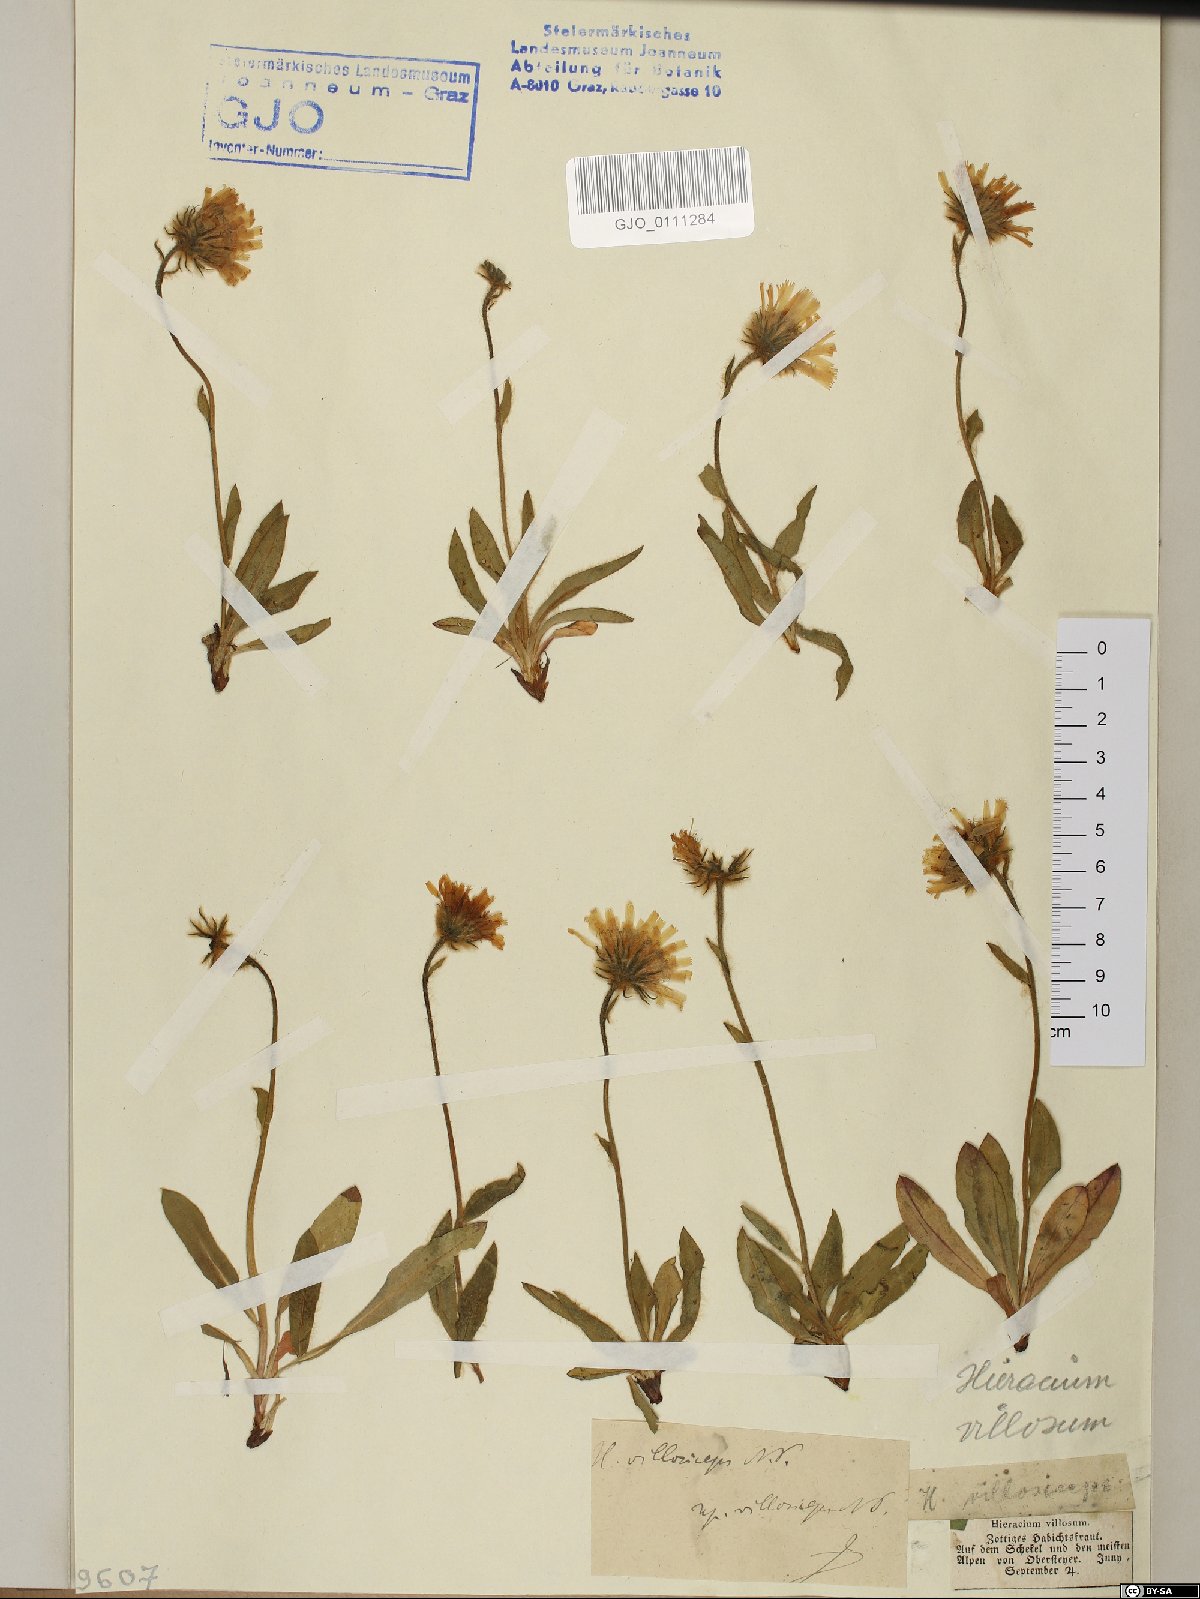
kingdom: Plantae
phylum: Tracheophyta
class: Magnoliopsida
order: Asterales
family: Asteraceae
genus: Hieracium
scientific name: Hieracium pilosum
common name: Fimbriate-pitted hawkweed
